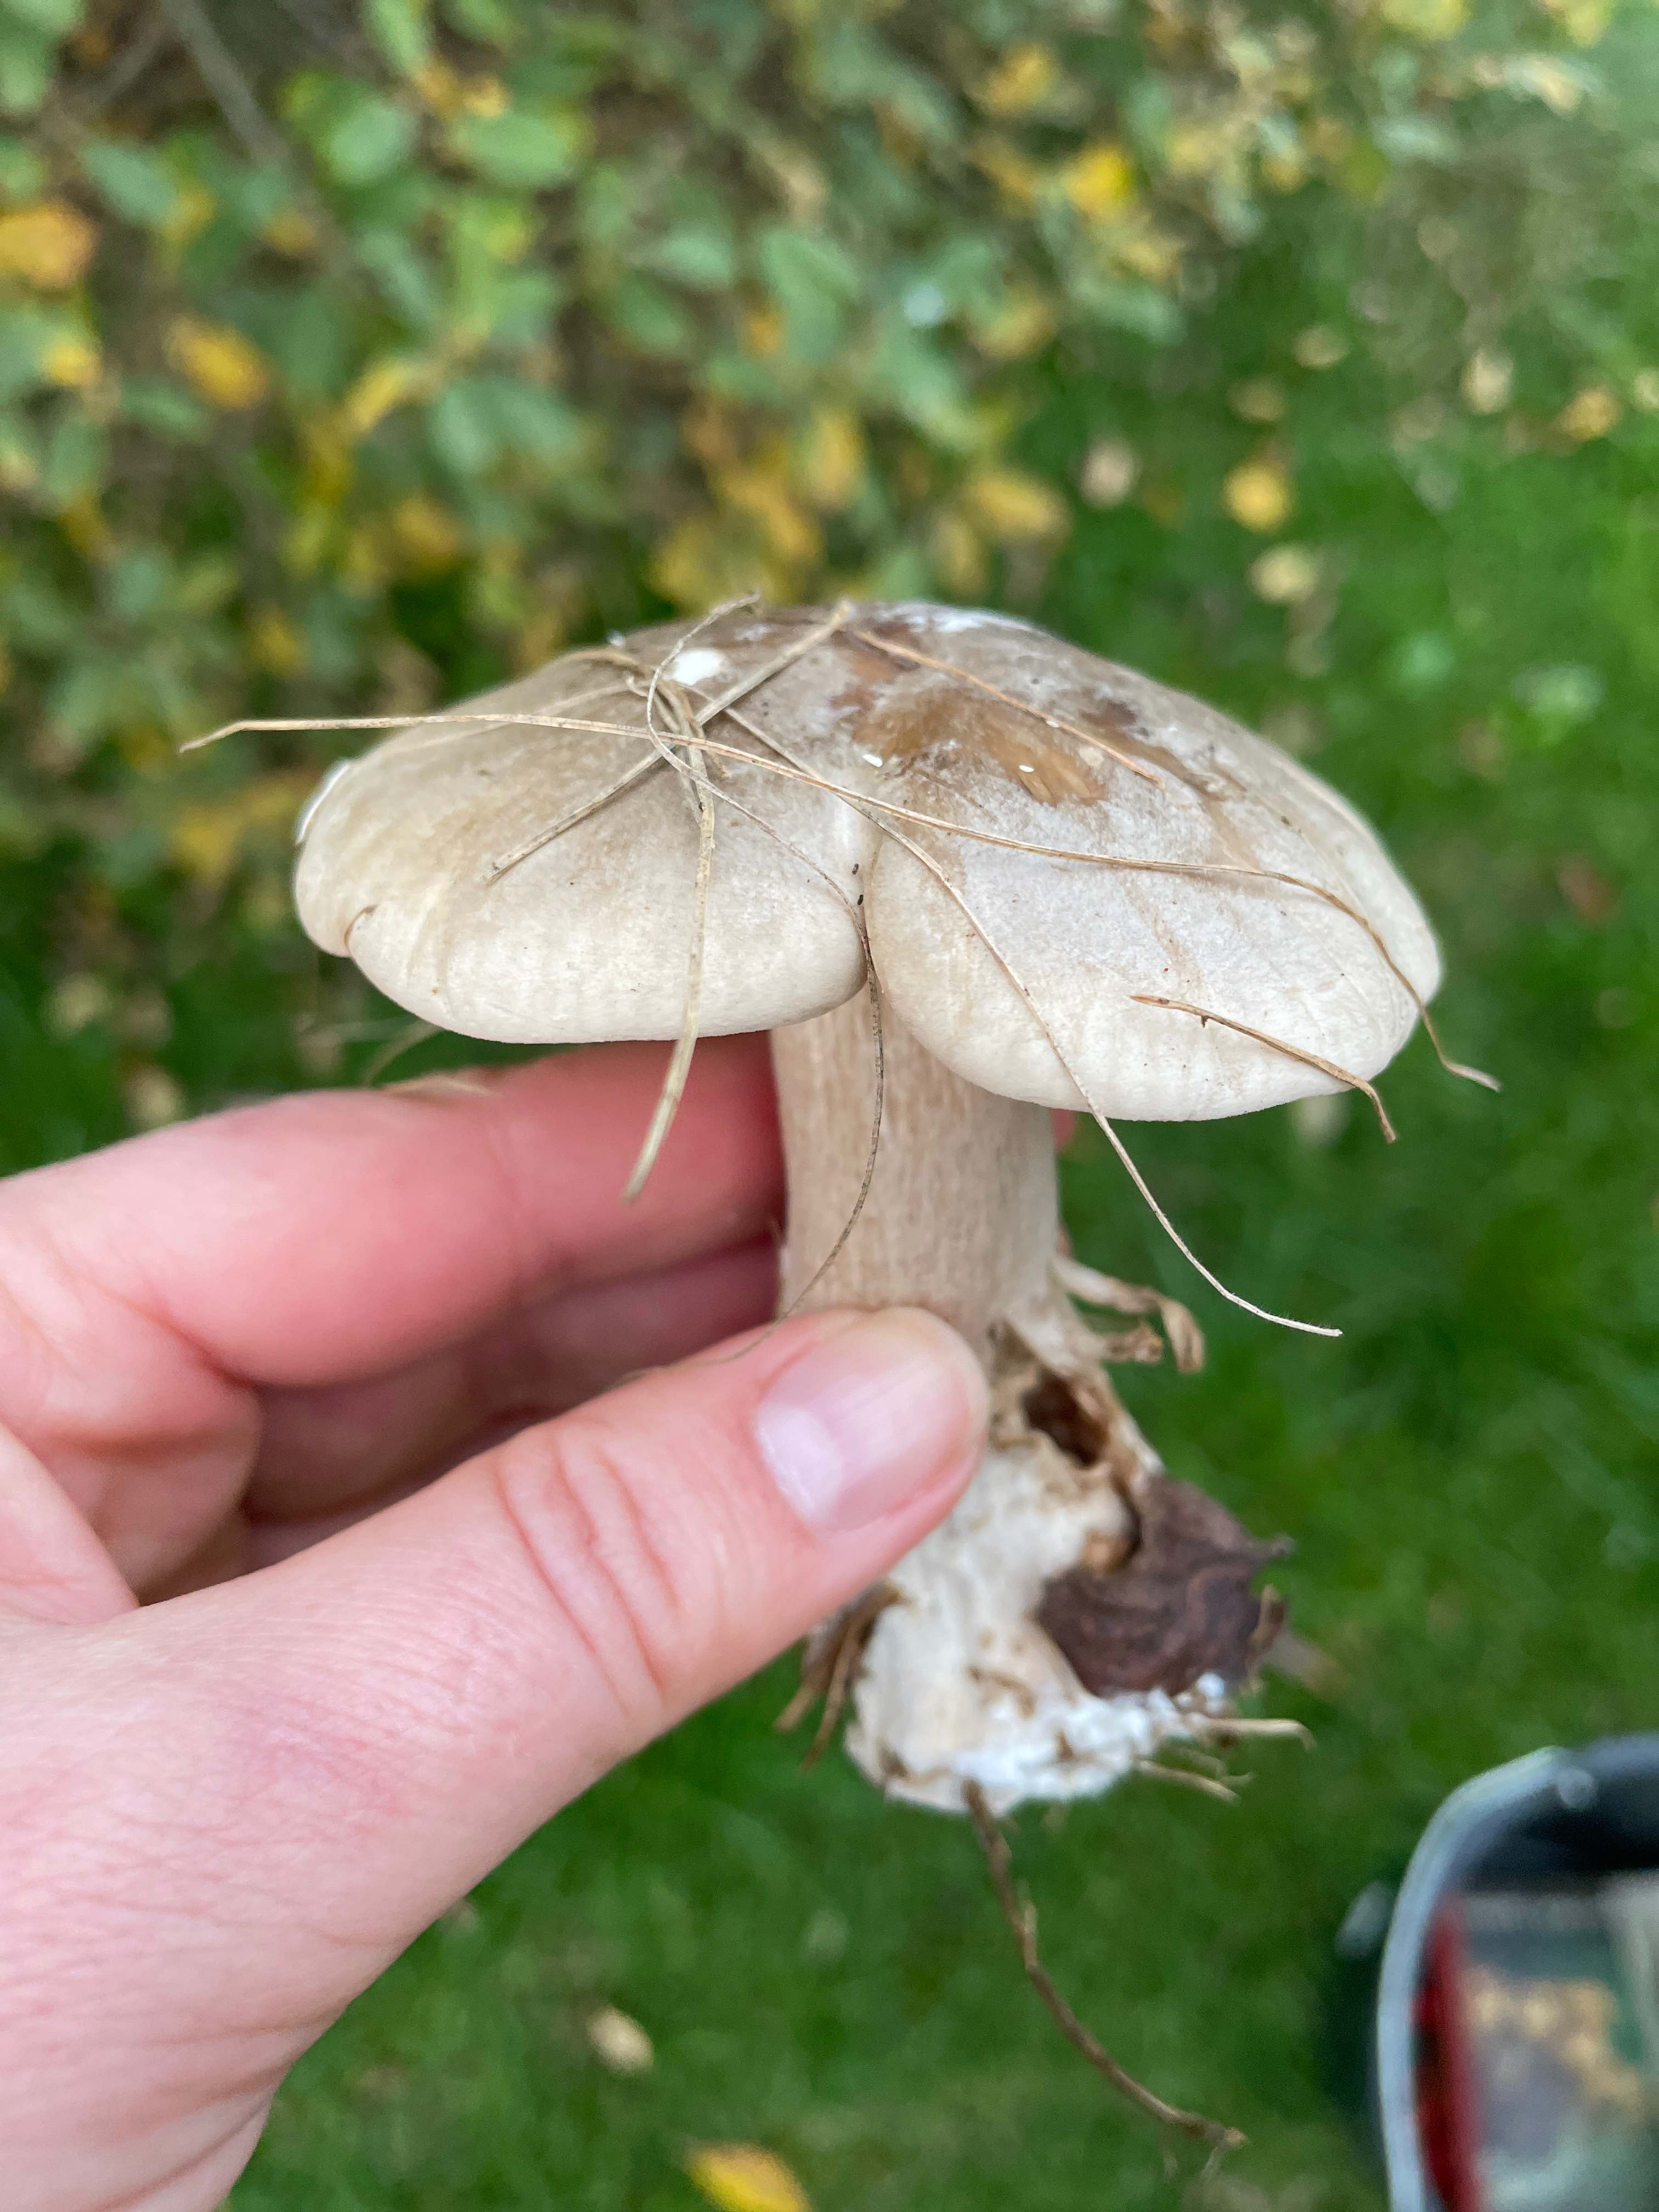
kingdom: Fungi
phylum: Basidiomycota
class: Agaricomycetes
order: Agaricales
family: Tricholomataceae
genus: Clitocybe
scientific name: Clitocybe nebularis
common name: tåge-tragthat
